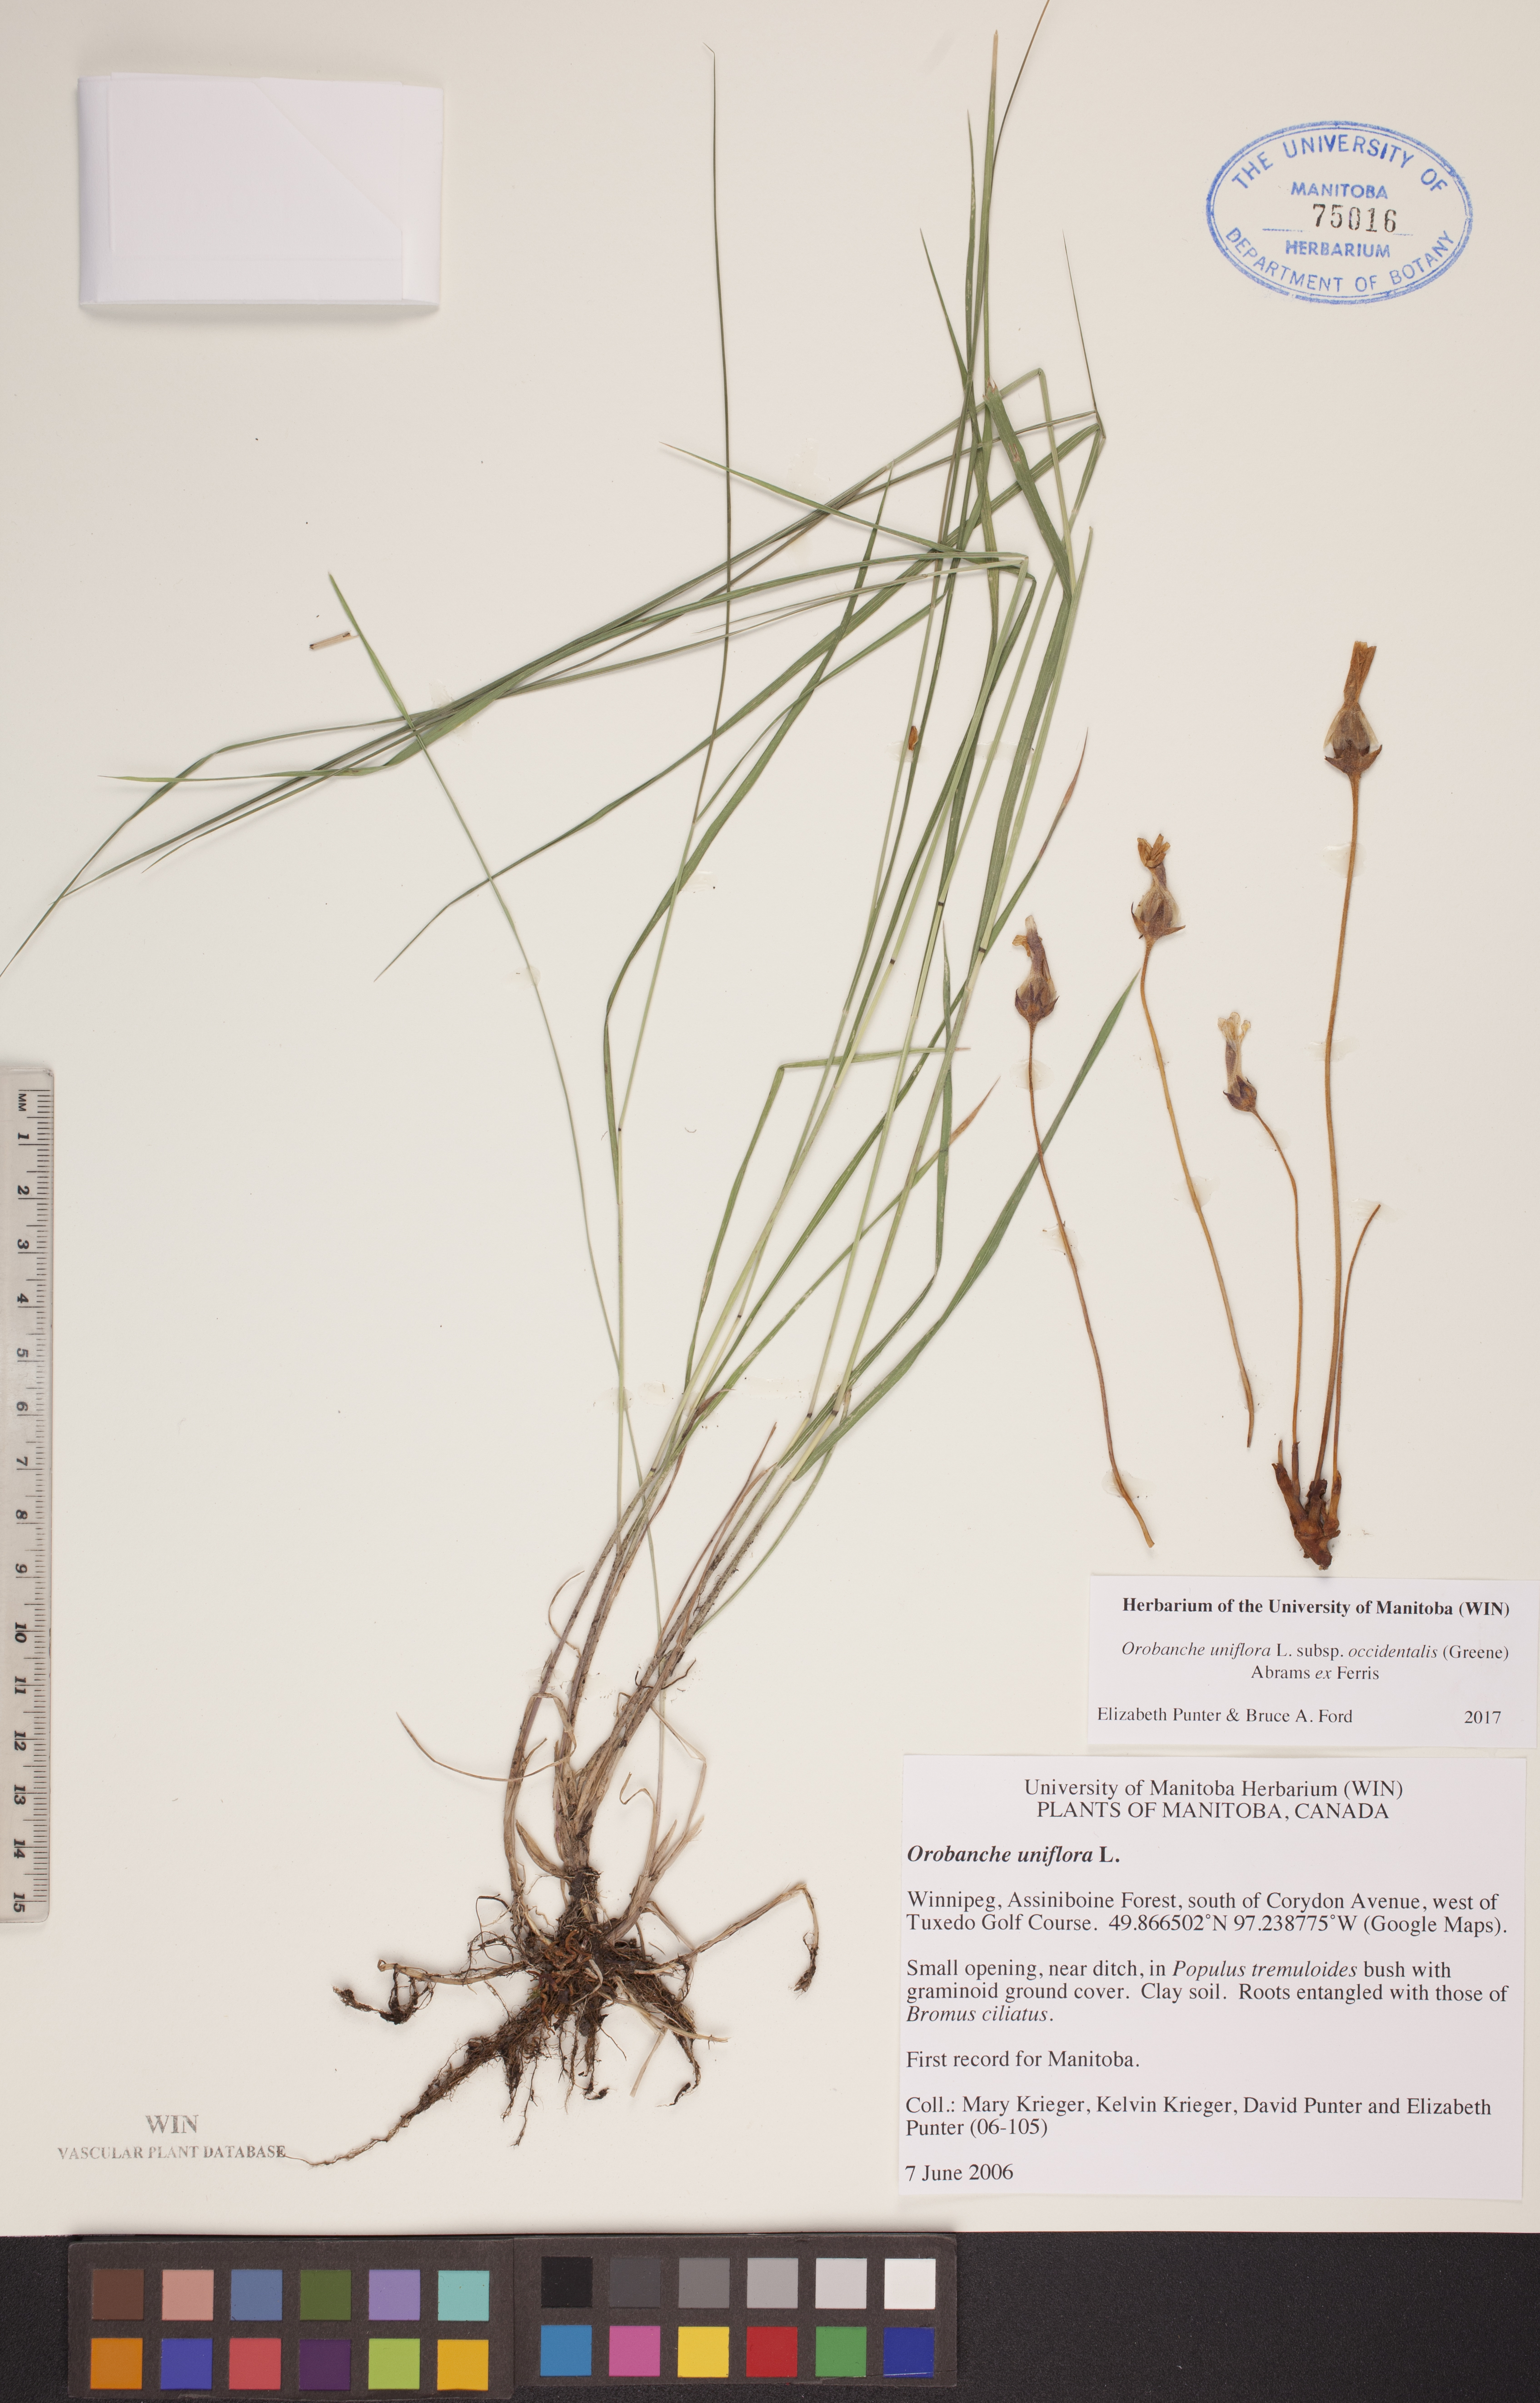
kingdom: Plantae
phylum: Tracheophyta
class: Magnoliopsida
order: Lamiales
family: Orobanchaceae
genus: Aphyllon
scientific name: Aphyllon uniflorum
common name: One-flowered broomrape
